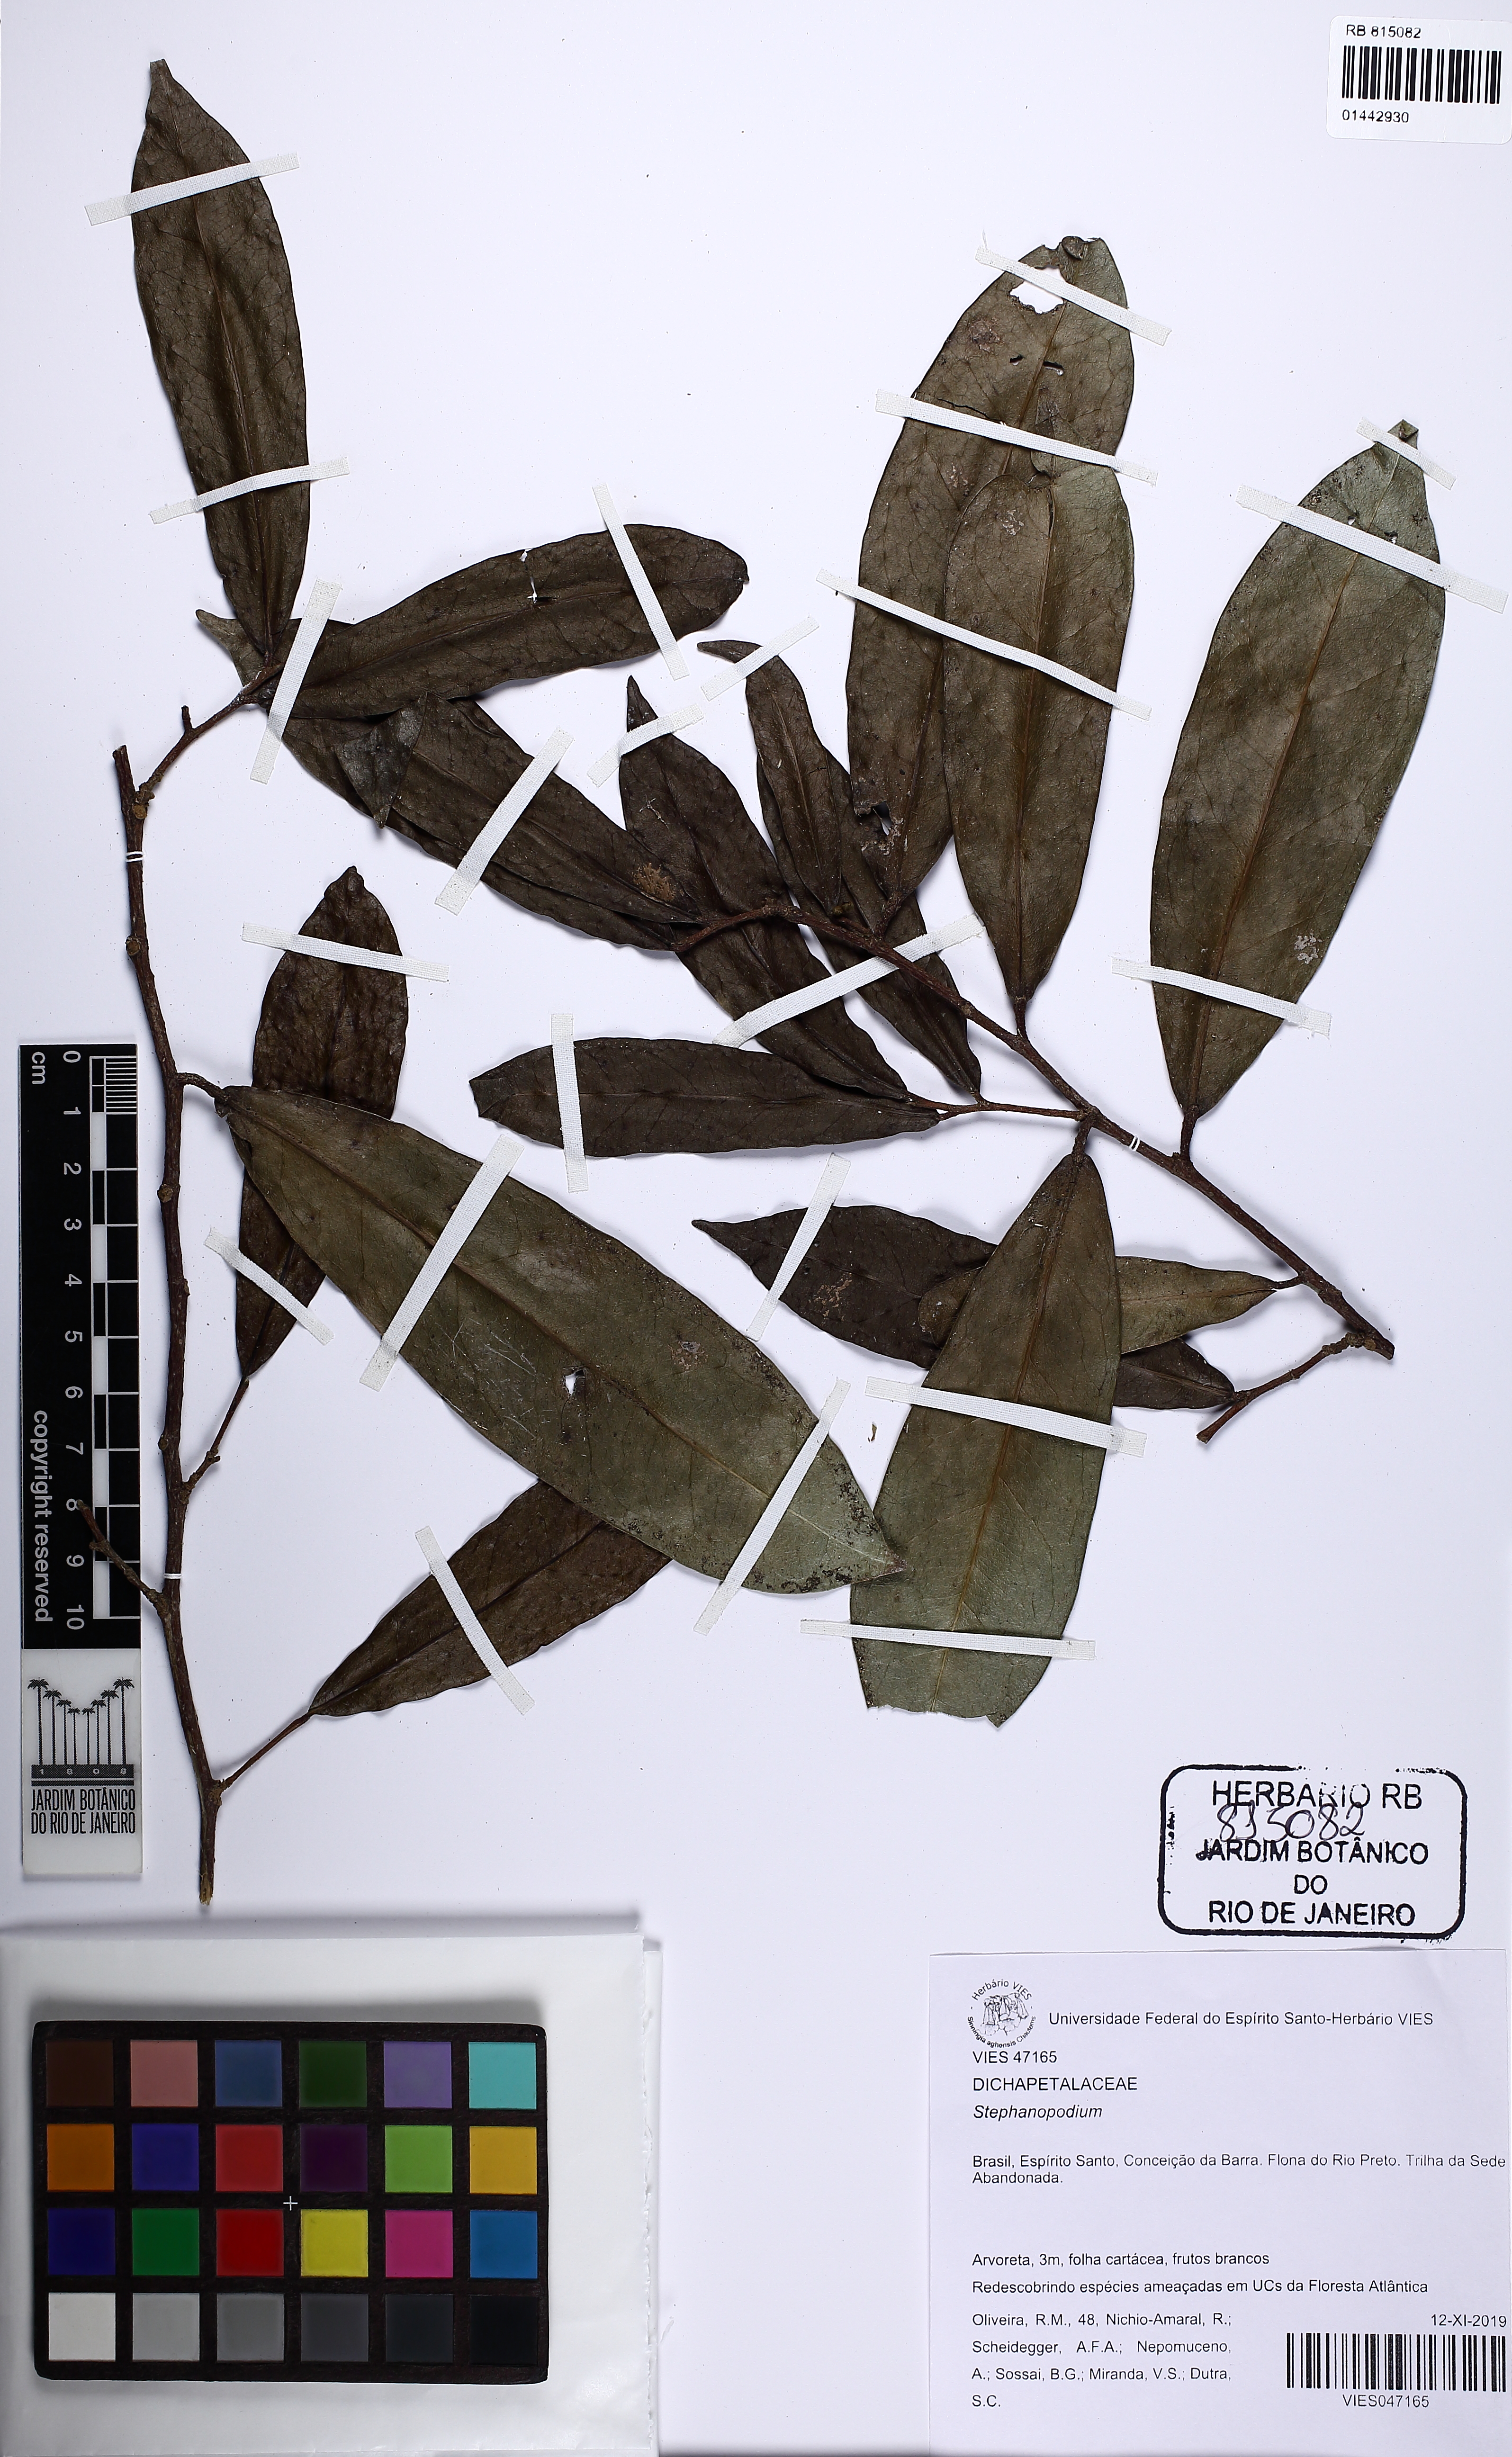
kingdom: Plantae
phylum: Tracheophyta
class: Magnoliopsida
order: Malpighiales
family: Dichapetalaceae
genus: Stephanopodium
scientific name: Stephanopodium
